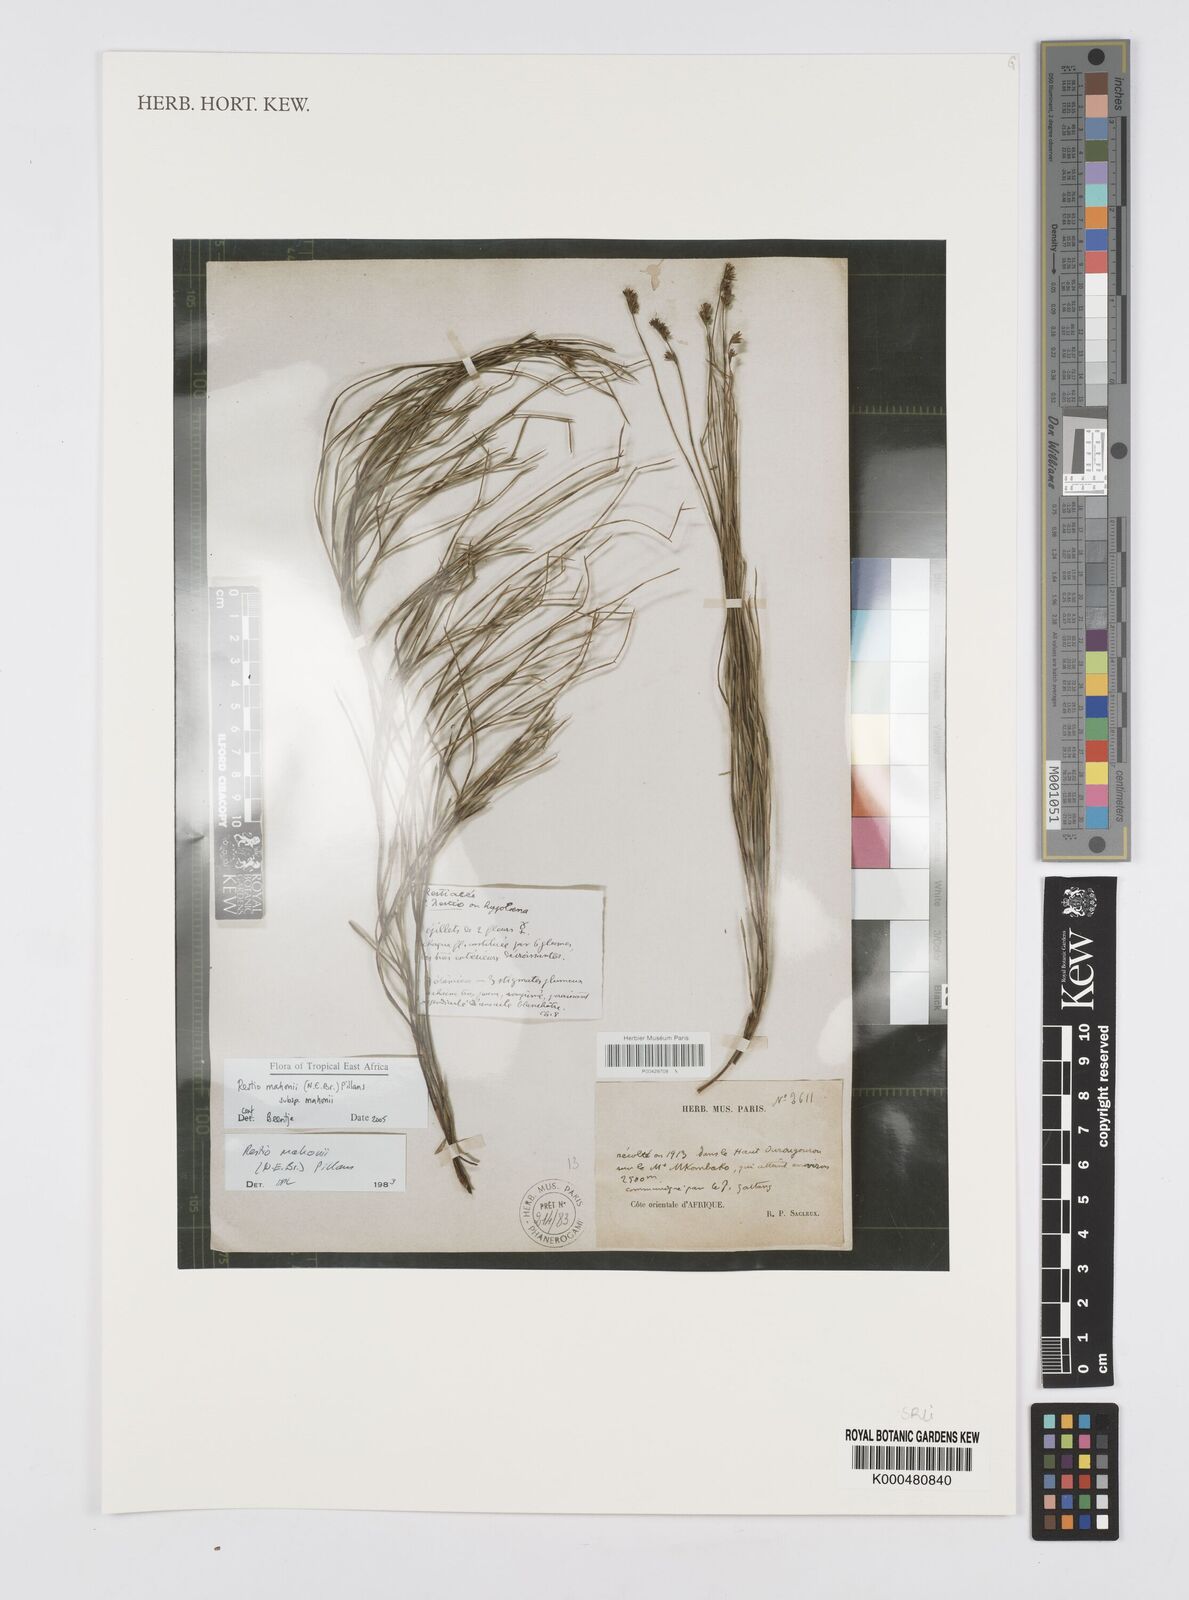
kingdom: Plantae
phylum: Tracheophyta
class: Liliopsida
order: Poales
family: Restionaceae
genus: Platycaulos
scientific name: Platycaulos mahonii
